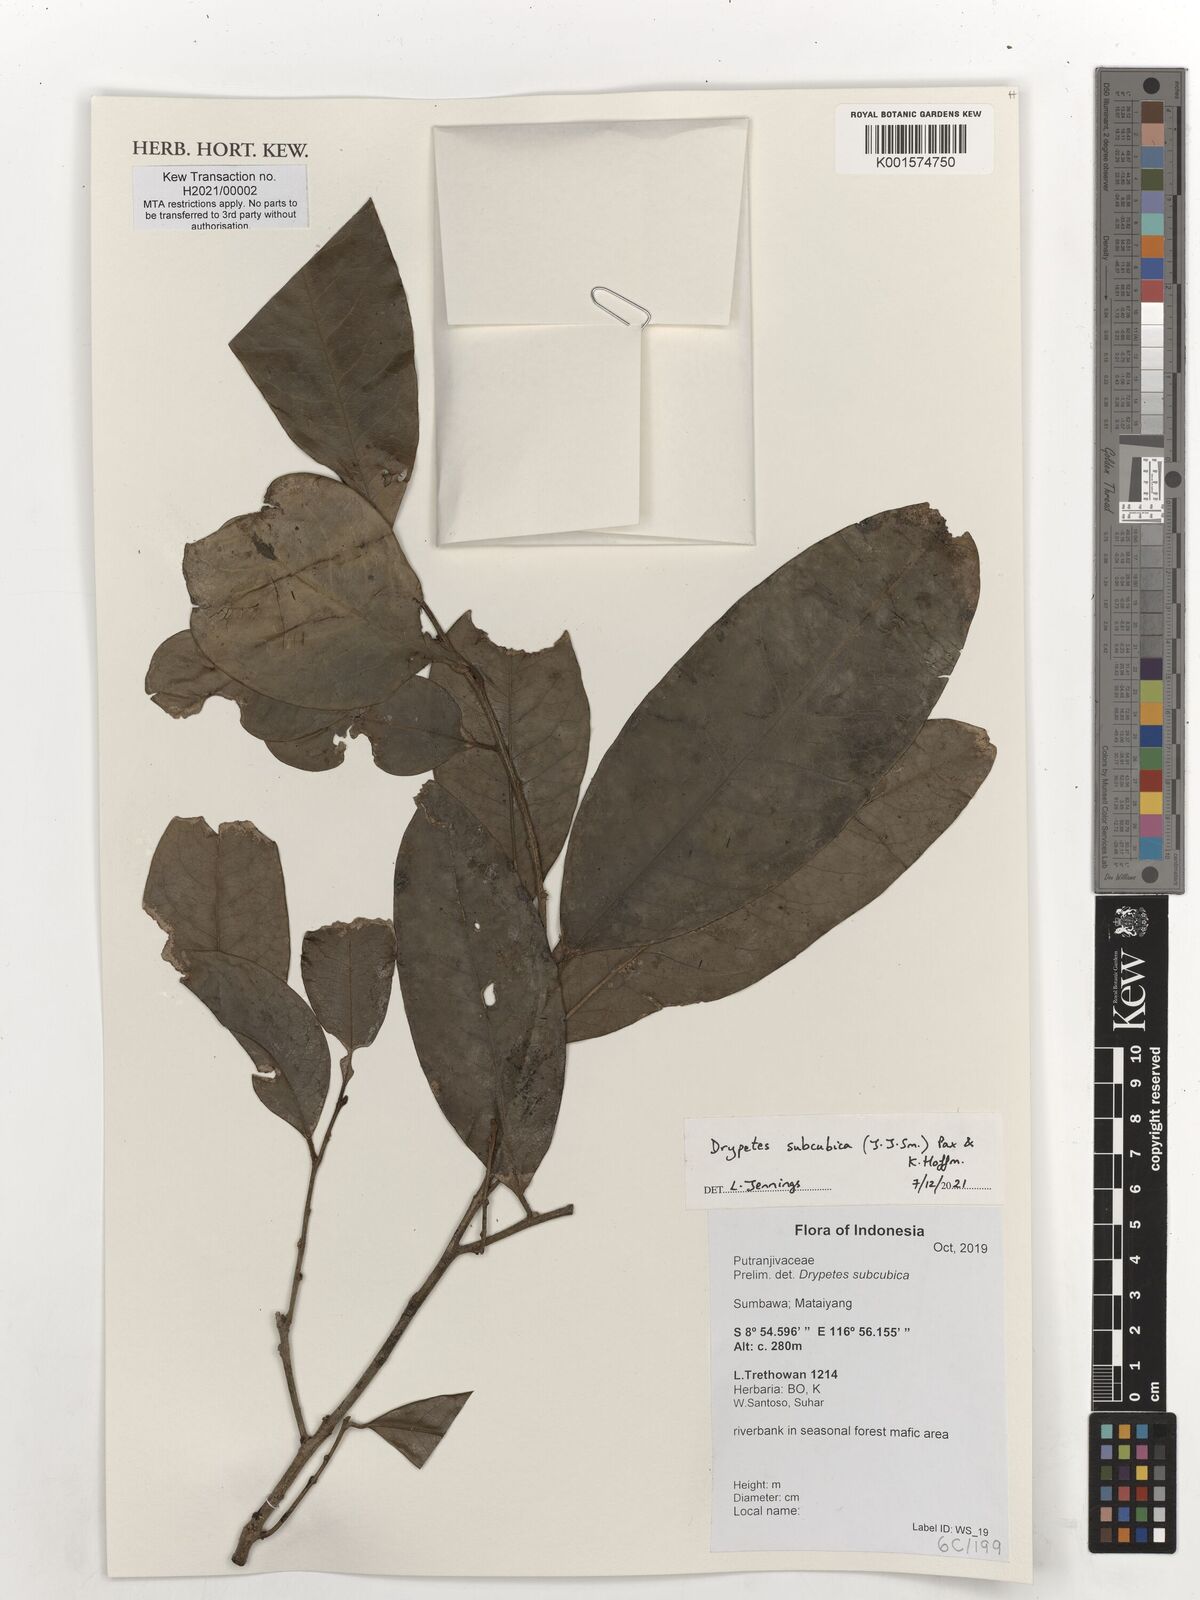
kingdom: Plantae
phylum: Tracheophyta
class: Magnoliopsida
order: Malpighiales
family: Putranjivaceae
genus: Drypetes
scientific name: Drypetes subcubica
